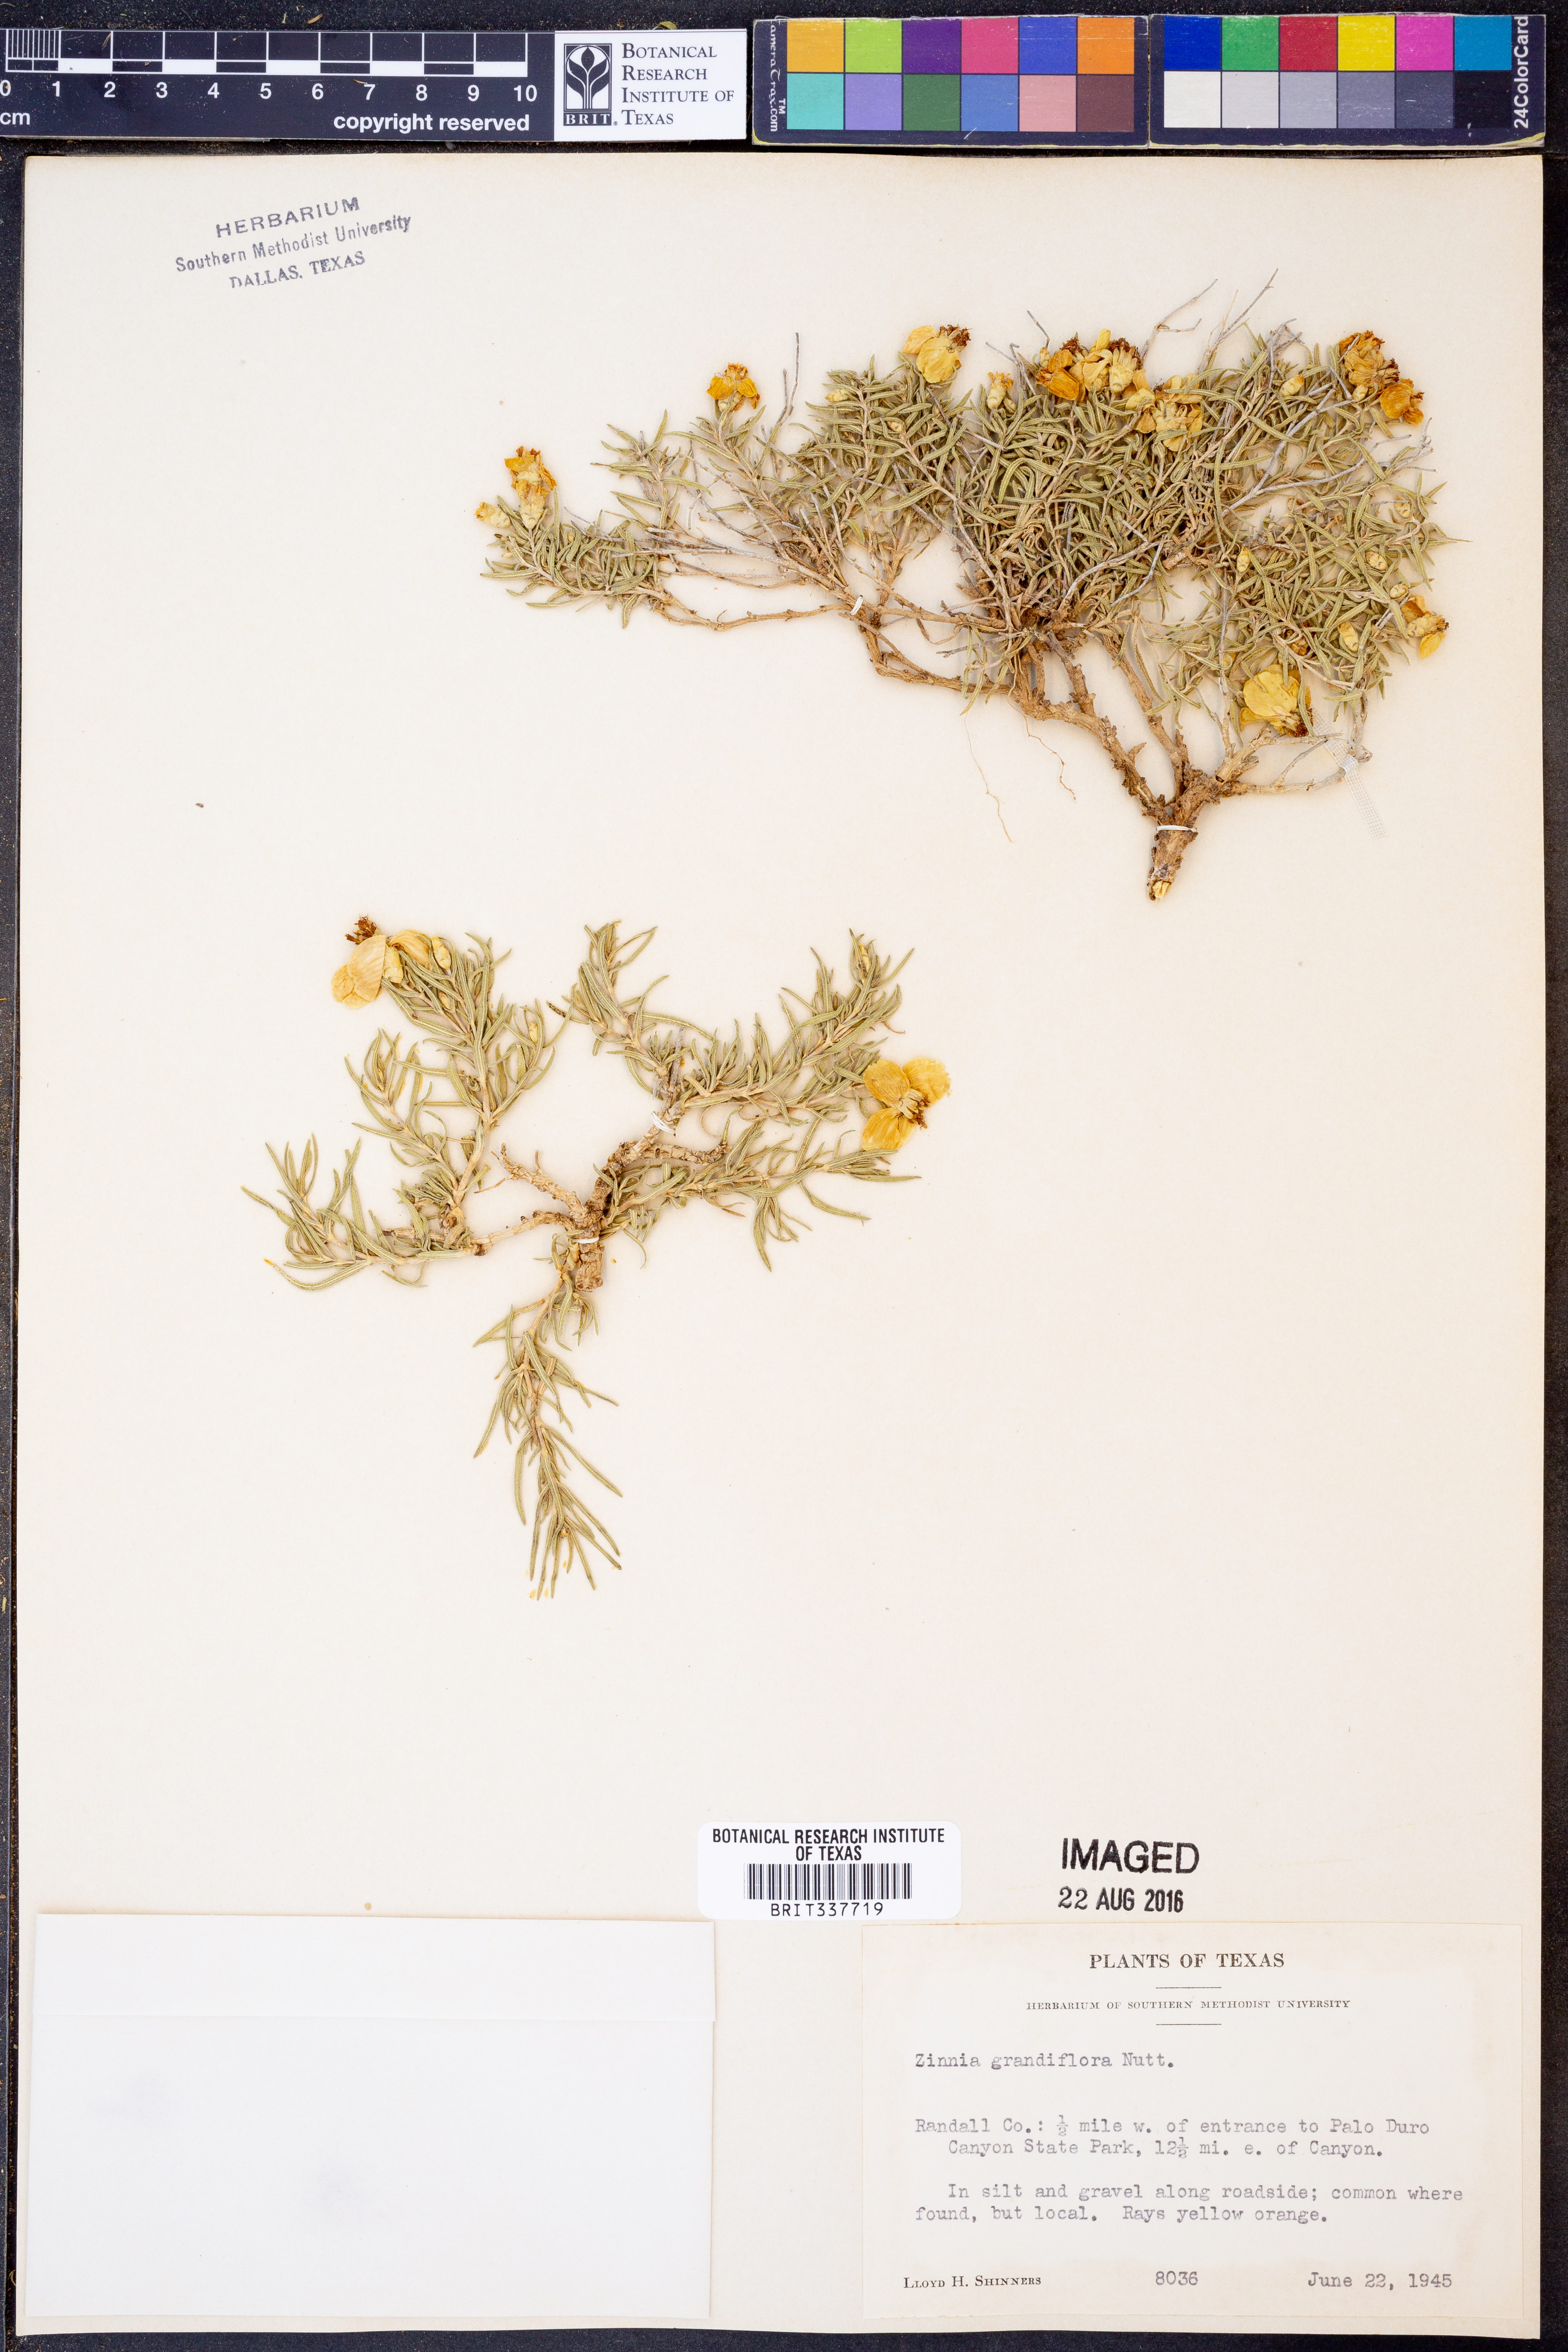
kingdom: Plantae
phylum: Tracheophyta
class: Magnoliopsida
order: Asterales
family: Asteraceae
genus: Zinnia
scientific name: Zinnia grandiflora
